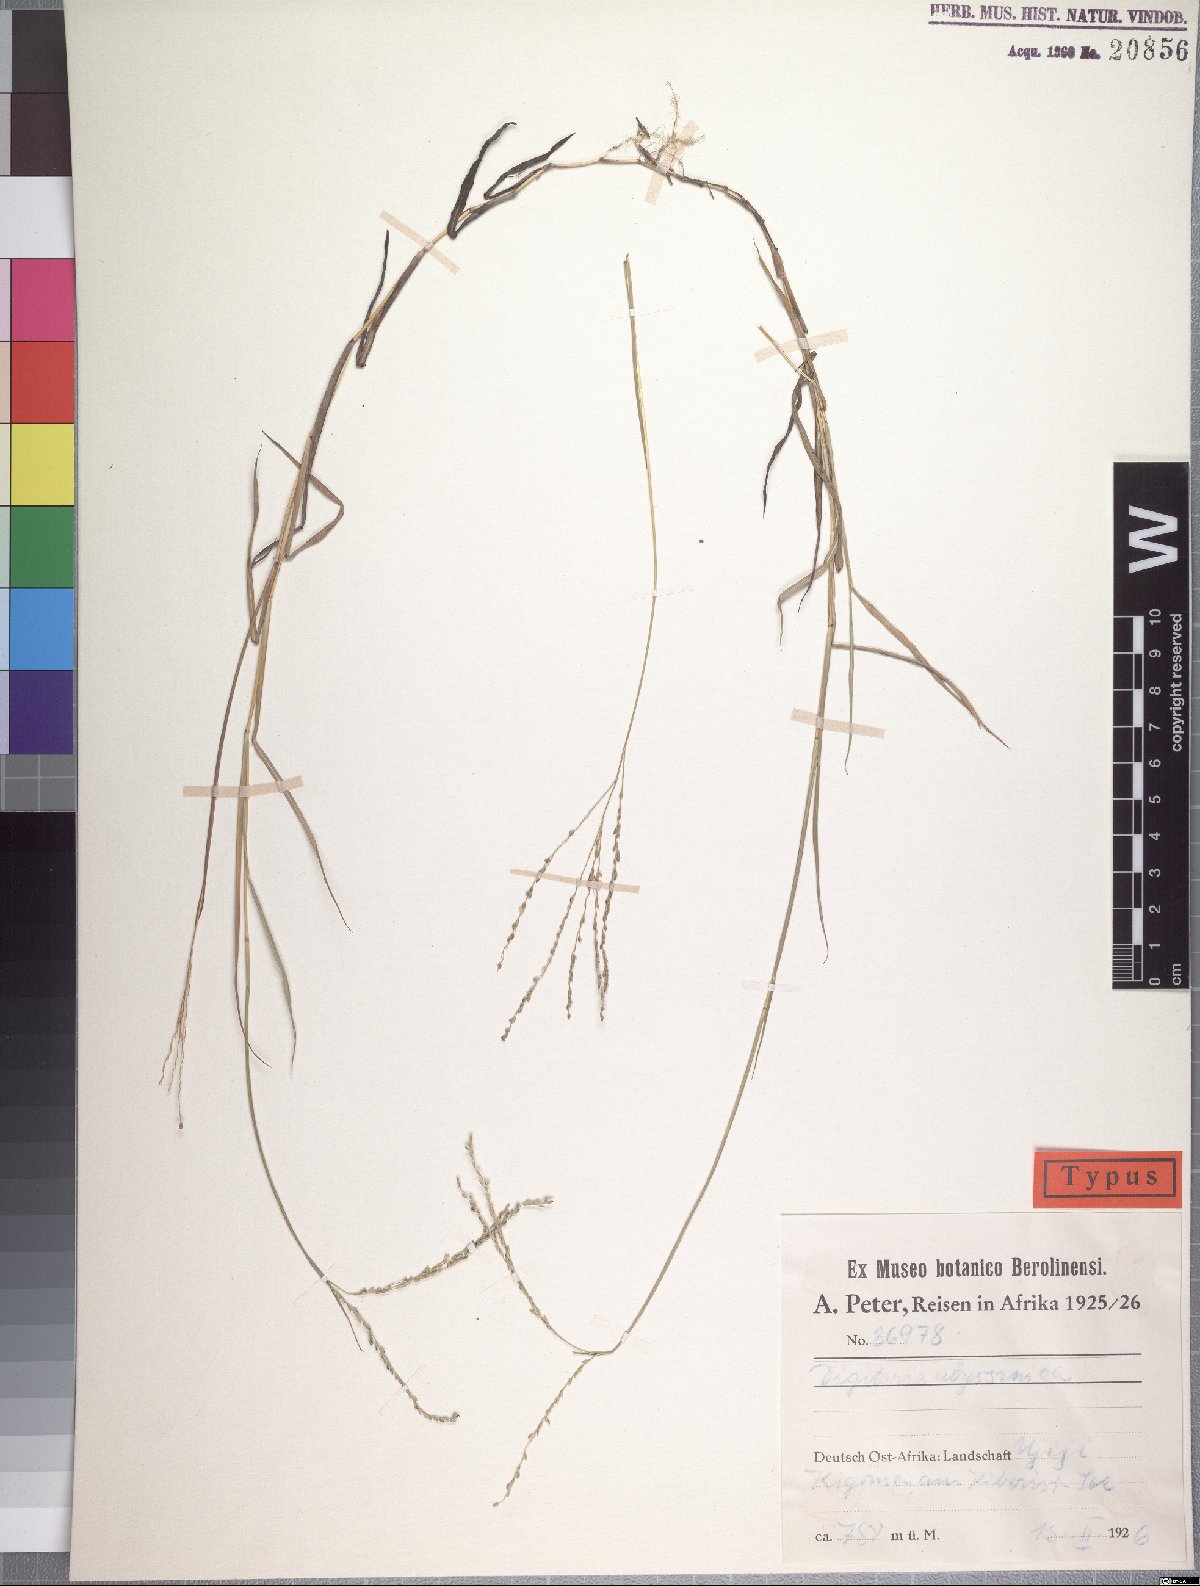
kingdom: Plantae
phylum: Tracheophyta
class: Liliopsida
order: Poales
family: Poaceae
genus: Digitaria
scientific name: Digitaria abyssinica
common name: African couchgrass
